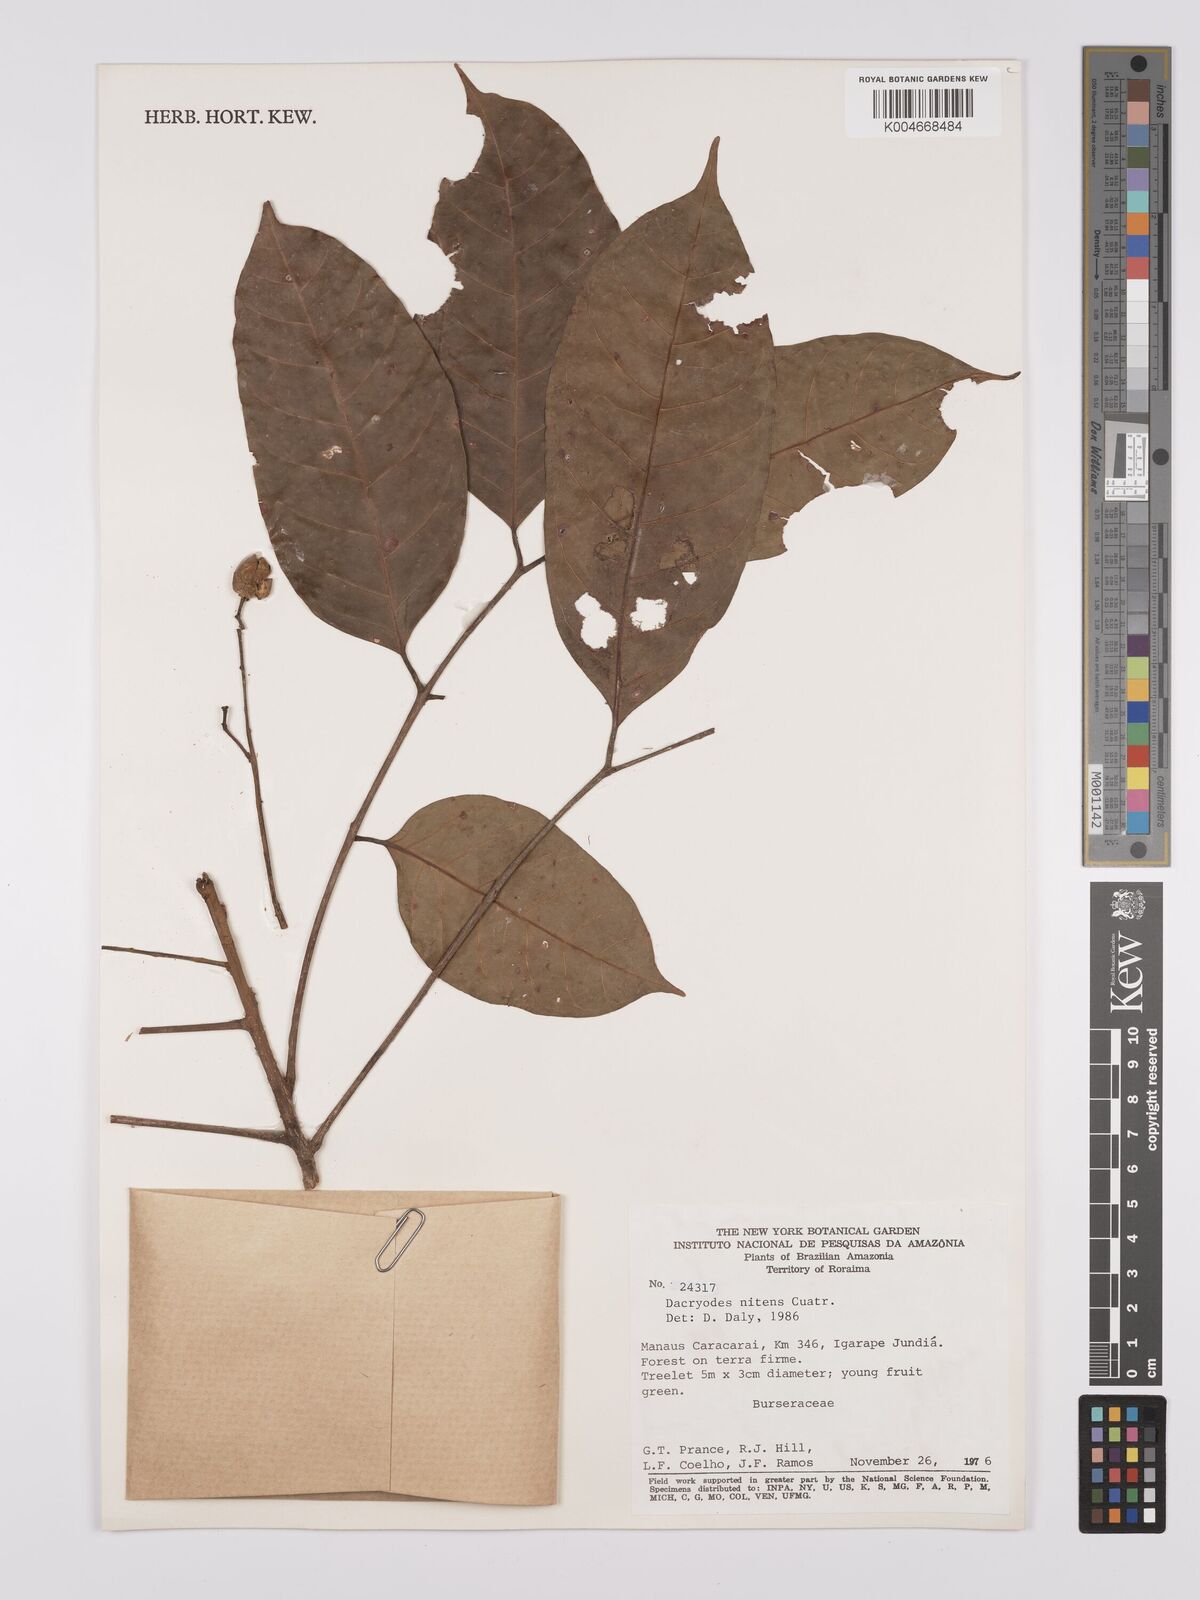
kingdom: Plantae
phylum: Tracheophyta
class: Magnoliopsida
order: Sapindales
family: Burseraceae
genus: Dacryodes
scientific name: Dacryodes nitens
